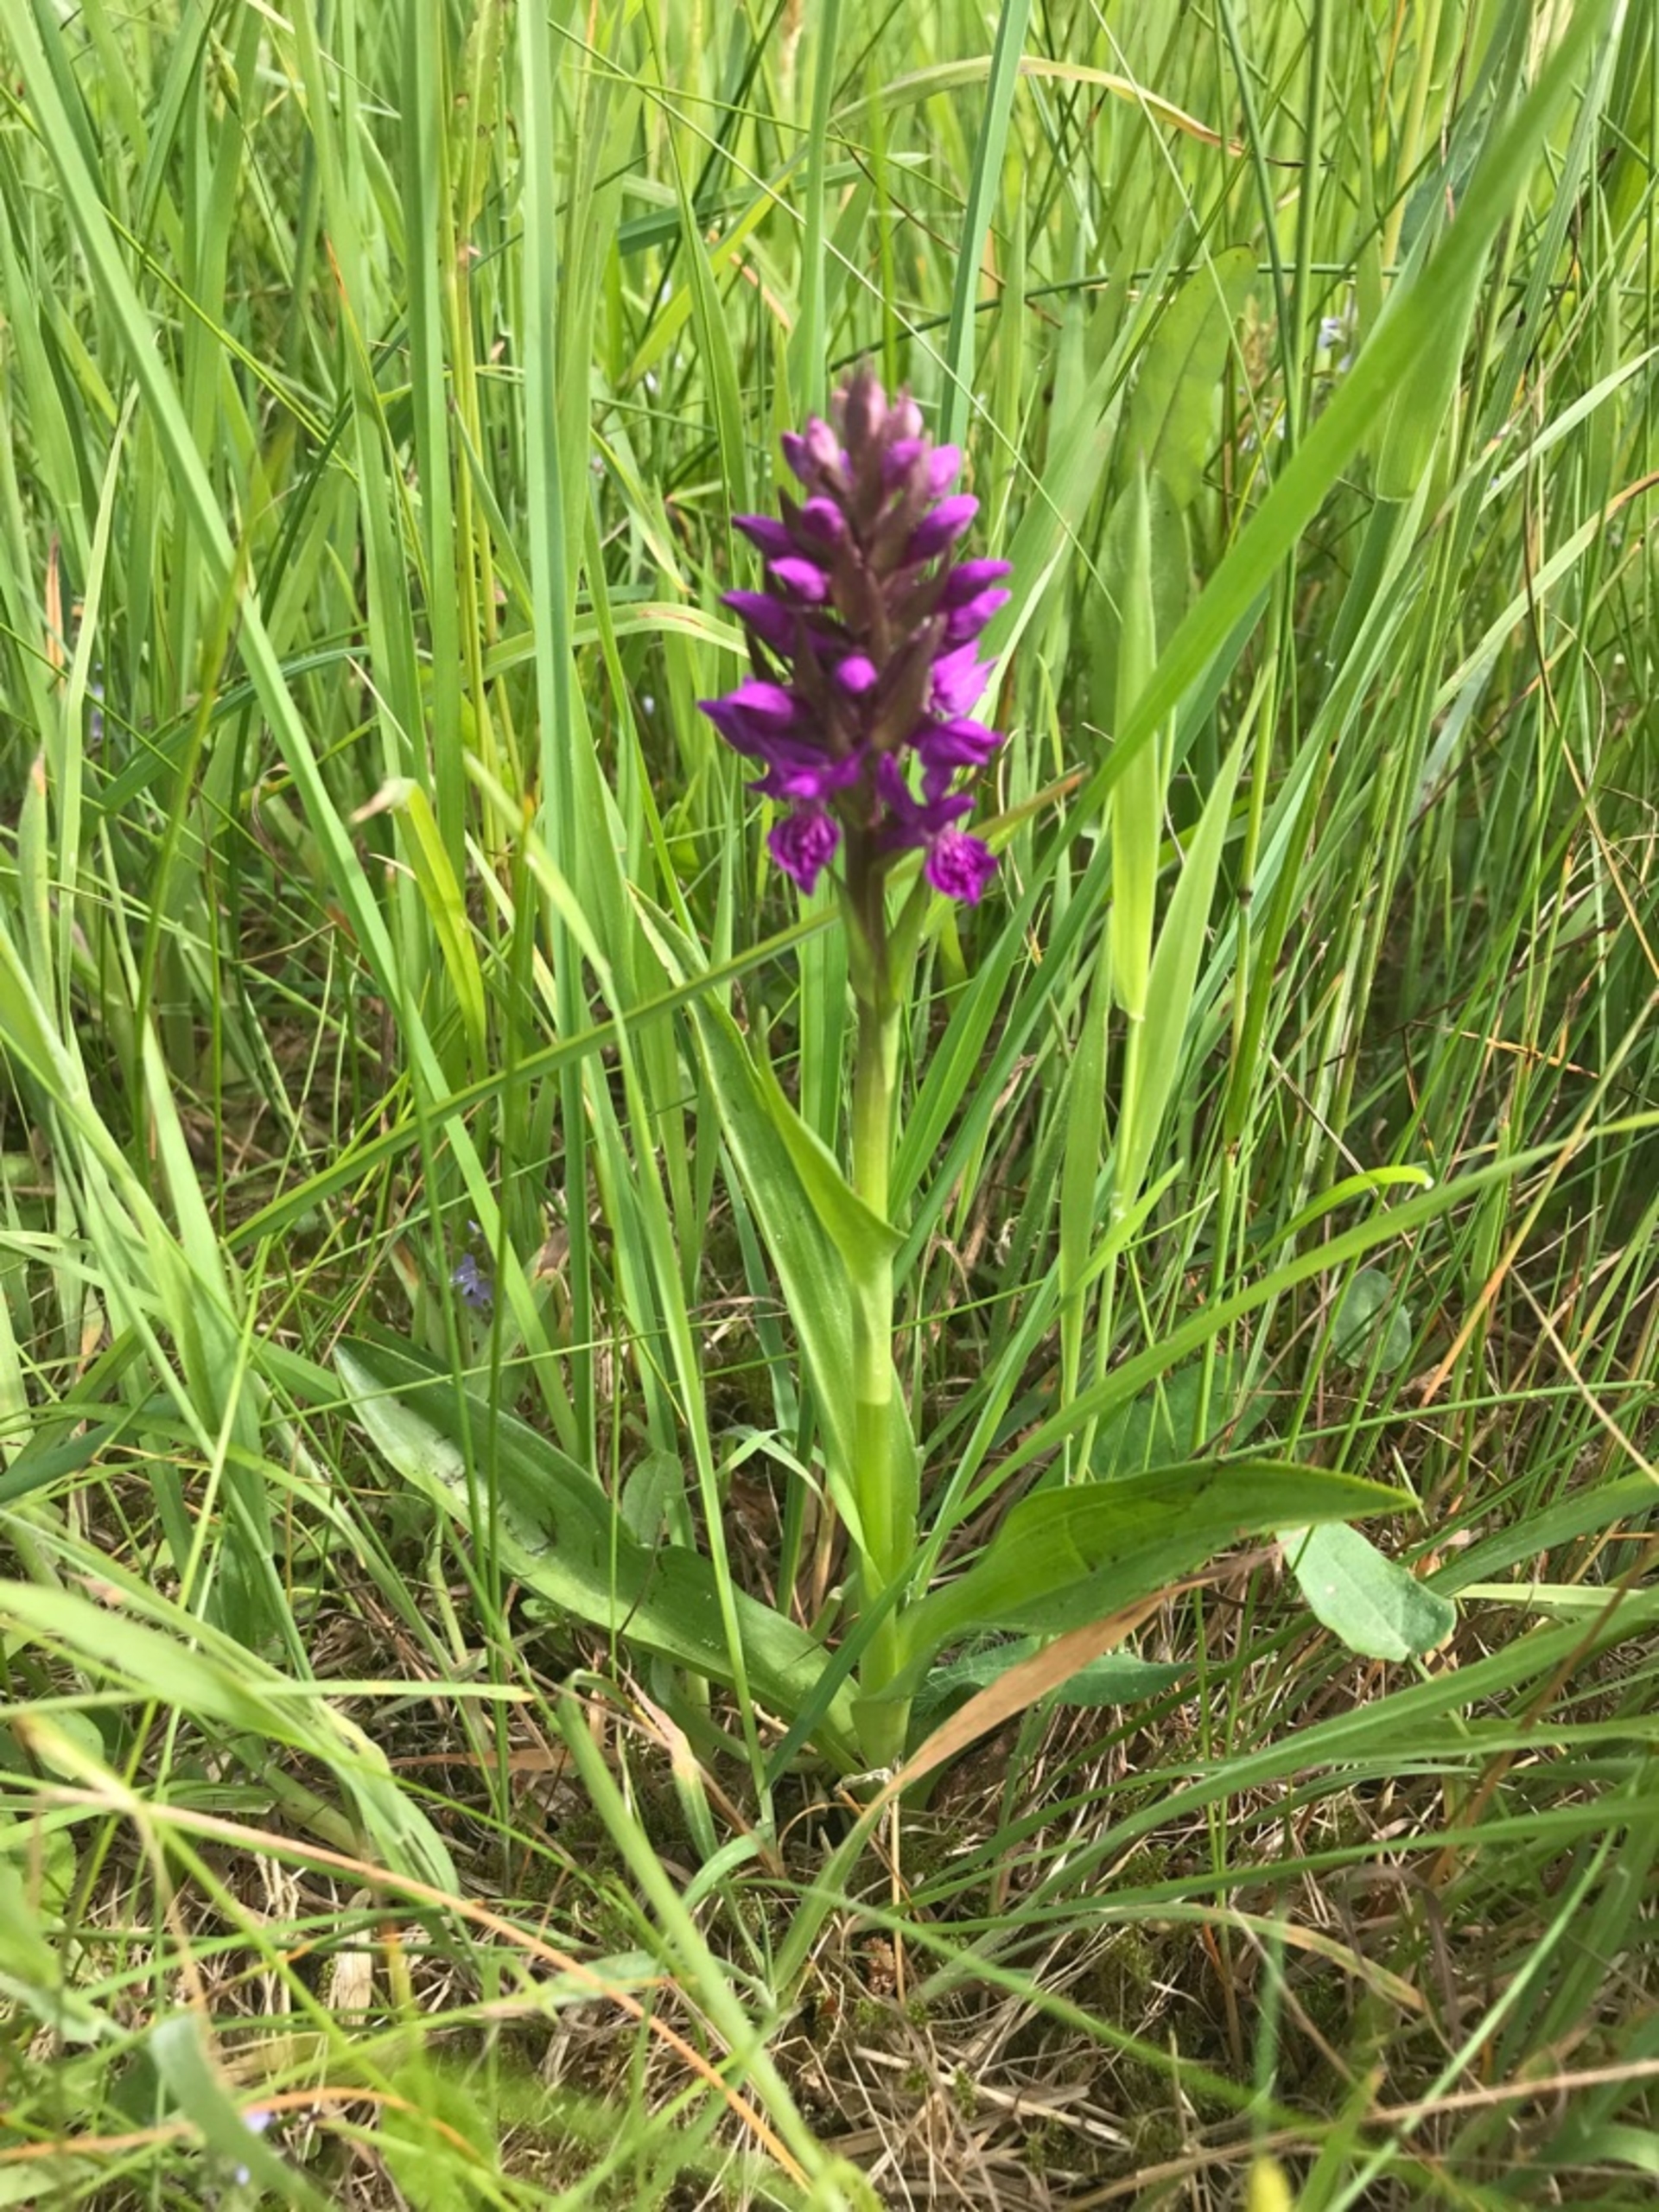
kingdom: Plantae
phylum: Tracheophyta
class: Liliopsida
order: Asparagales
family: Orchidaceae
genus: Dactylorhiza
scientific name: Dactylorhiza majalis
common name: Purpur-gøgeurt
